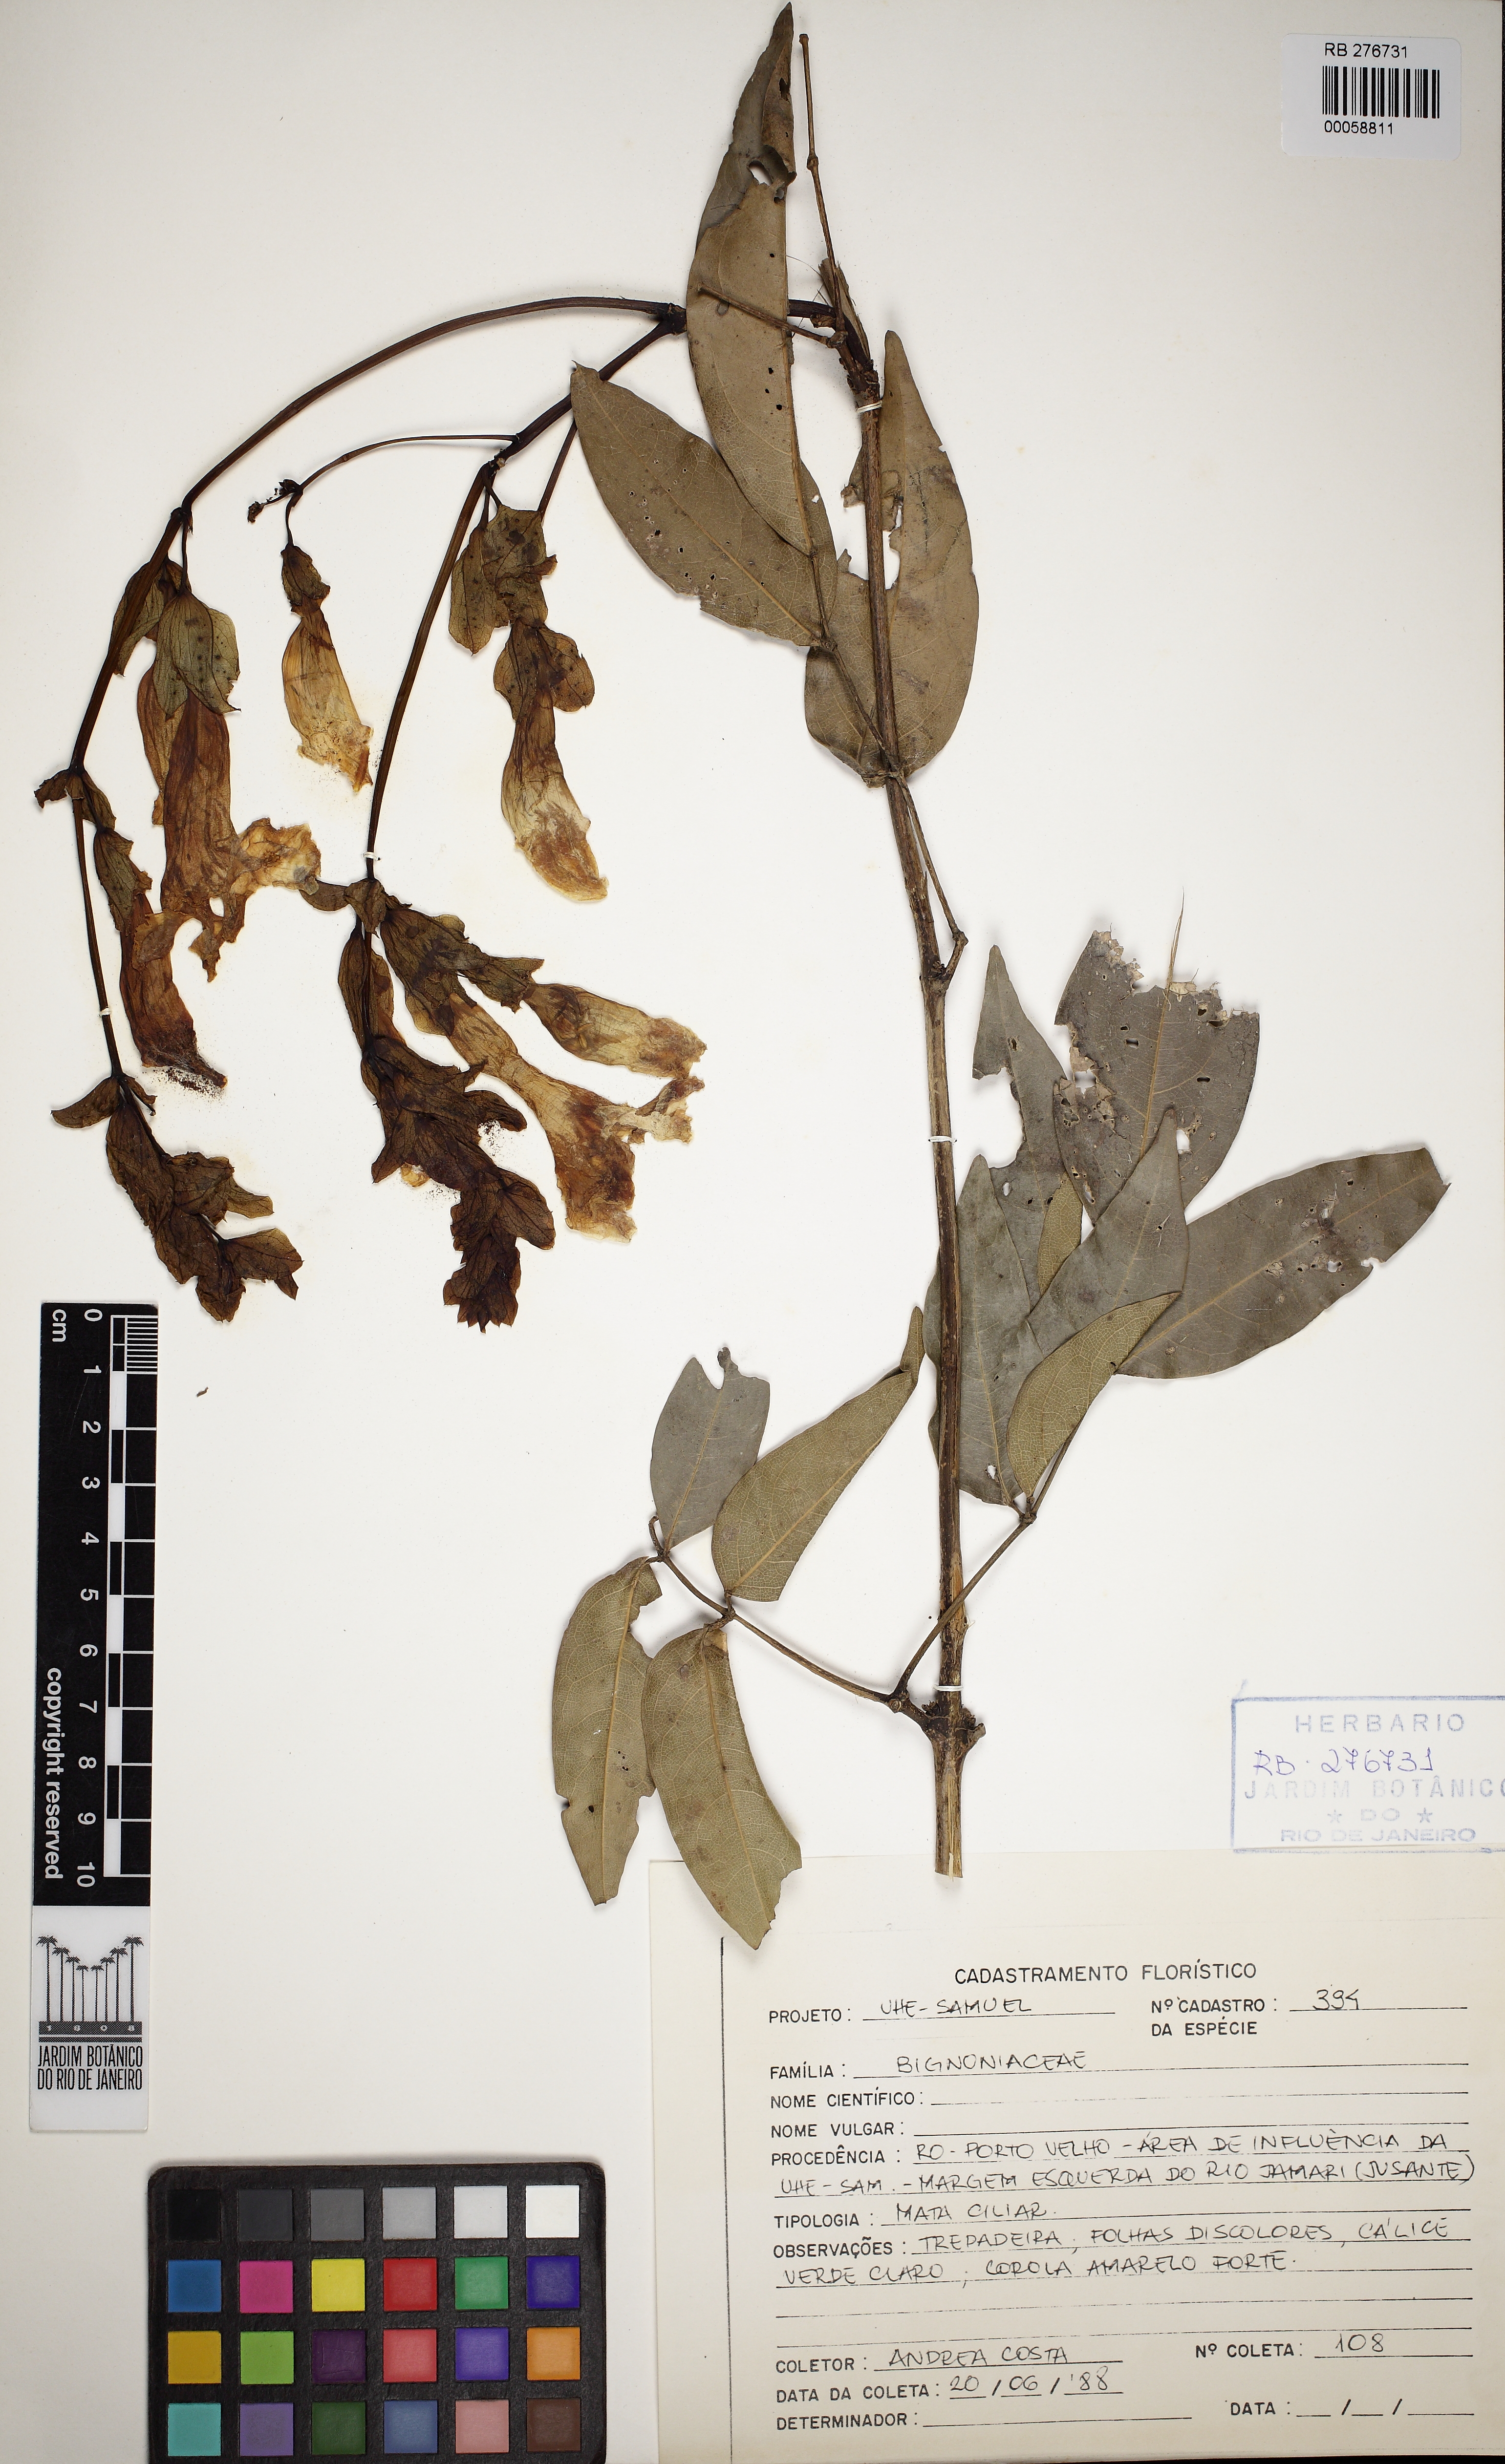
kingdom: Plantae
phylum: Tracheophyta
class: Magnoliopsida
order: Lamiales
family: Bignoniaceae
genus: Adenocalymma
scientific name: Adenocalymma
